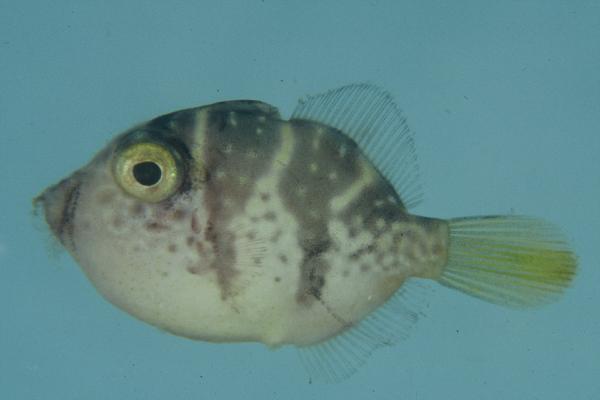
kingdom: Animalia
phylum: Chordata
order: Tetraodontiformes
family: Monacanthidae
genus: Paraluteres
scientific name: Paraluteres prionurus
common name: Black-saddled leatherjacket
